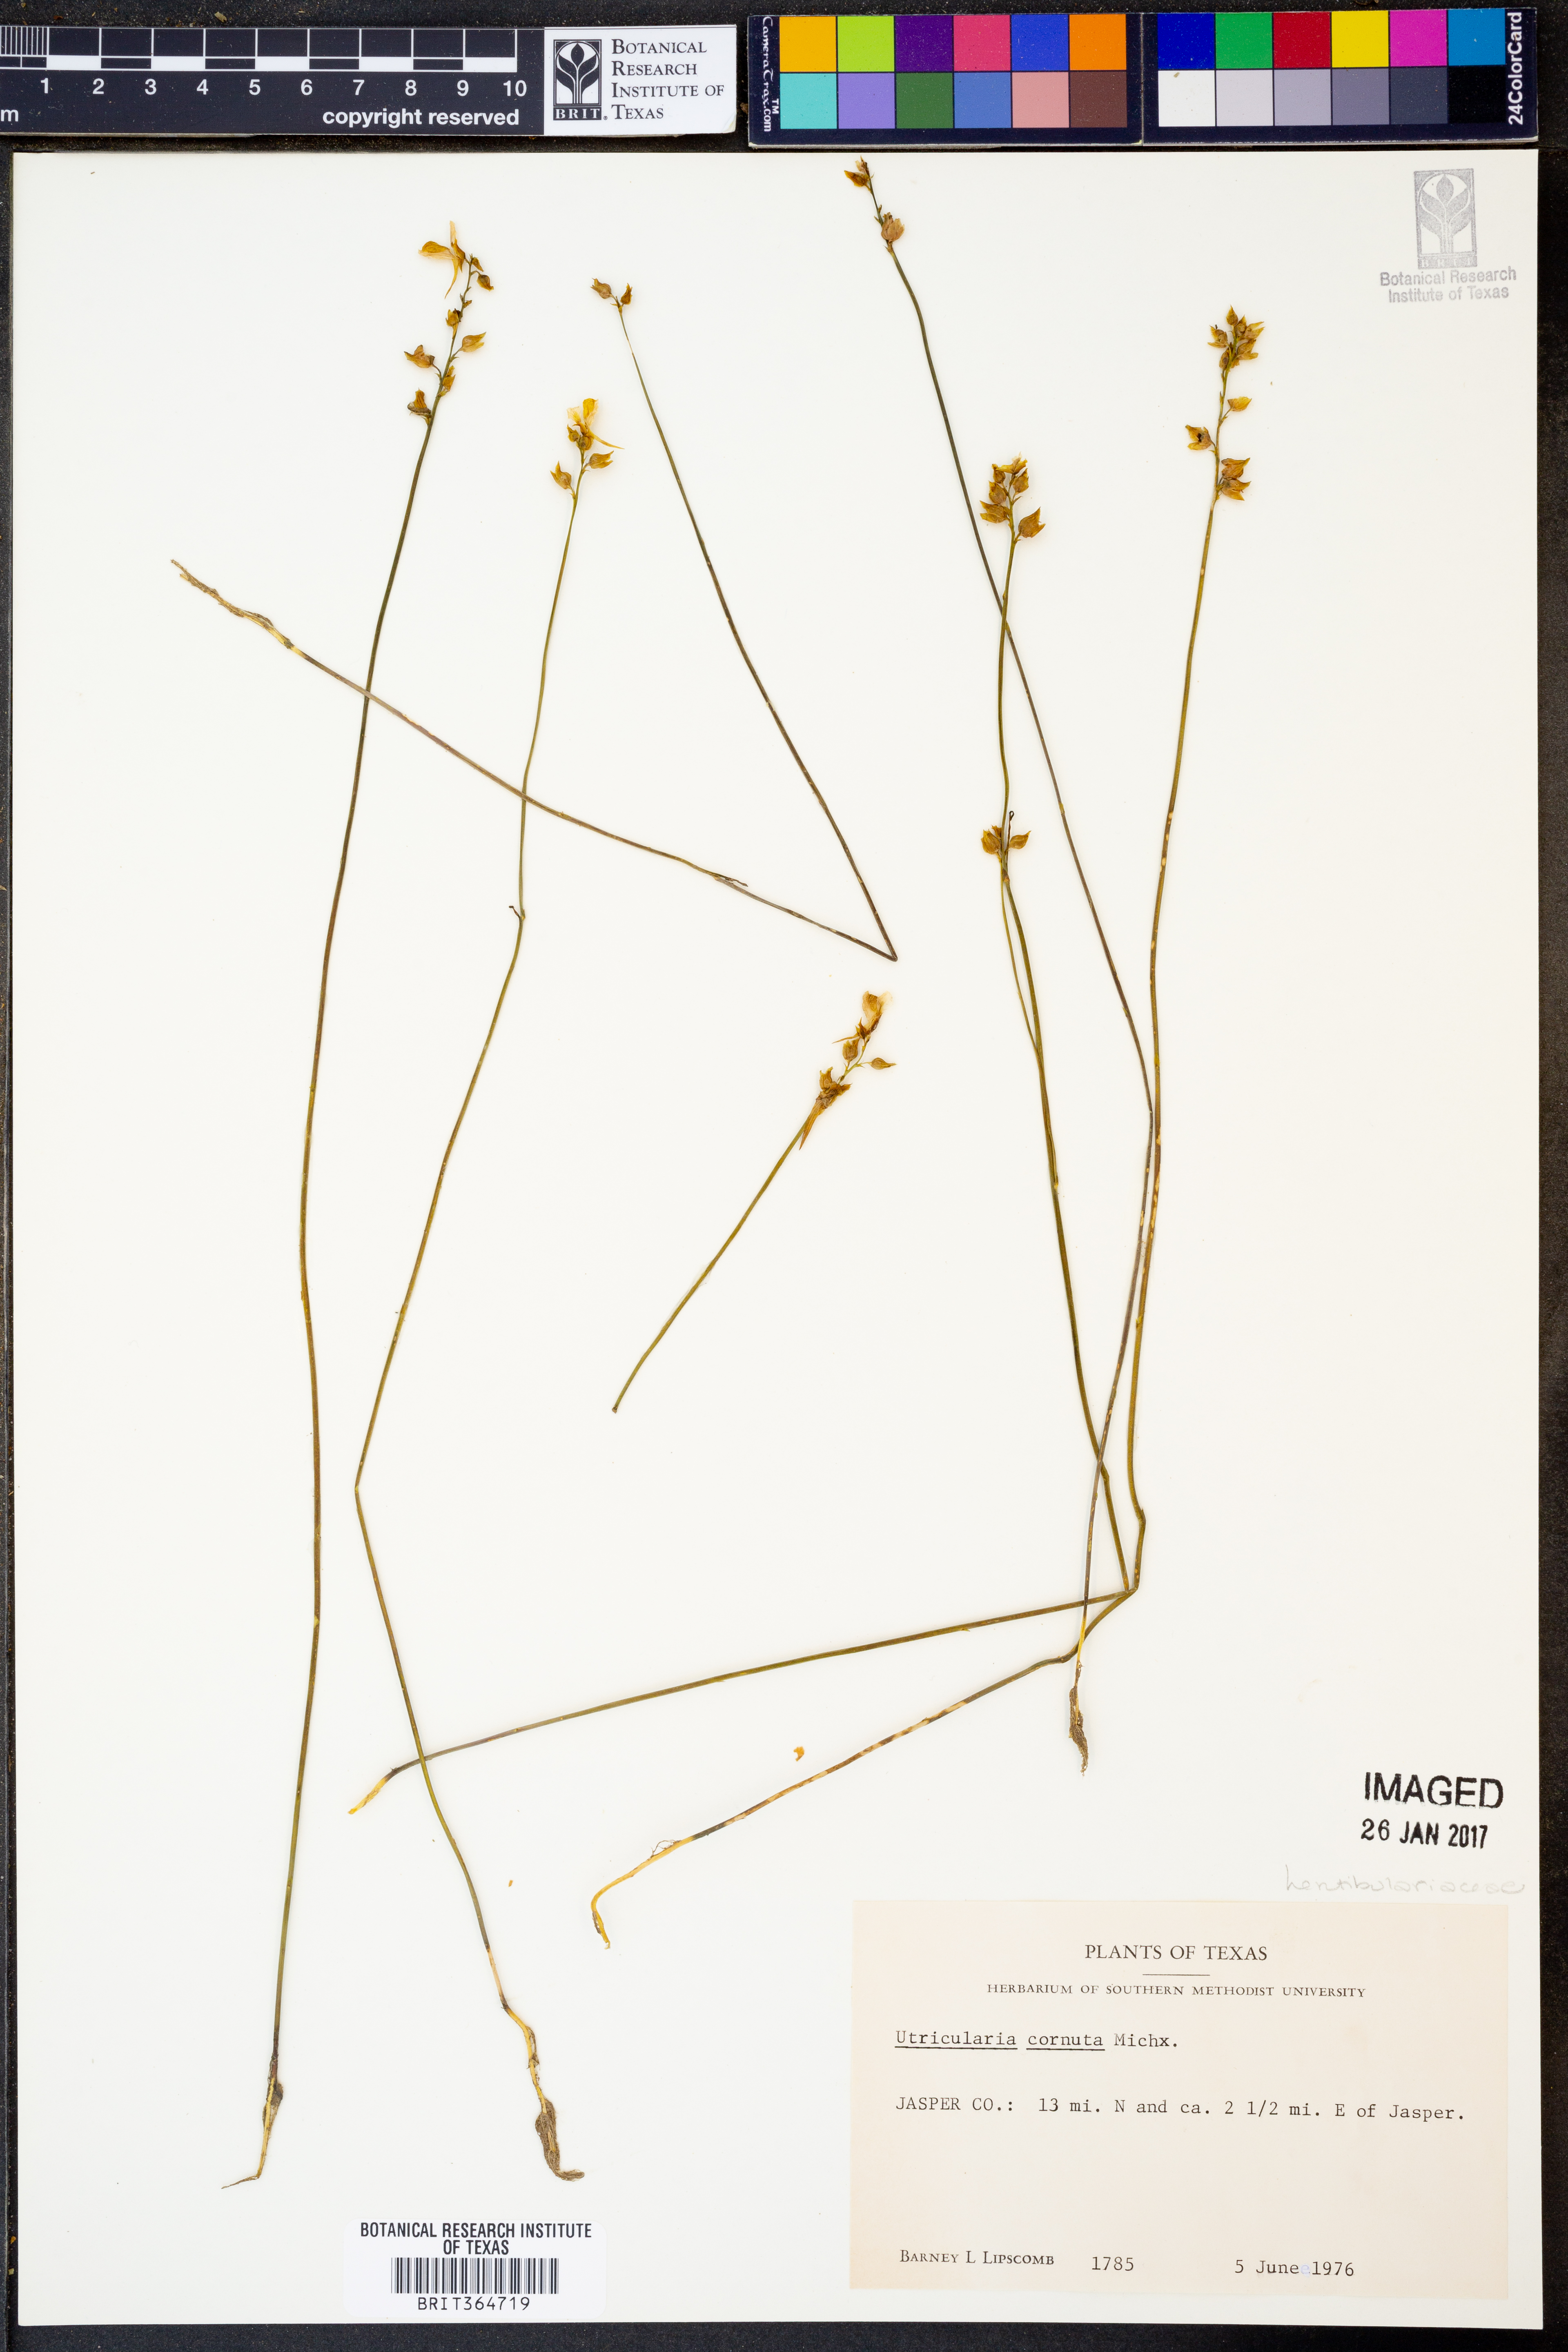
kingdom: Plantae
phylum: Tracheophyta
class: Magnoliopsida
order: Lamiales
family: Lentibulariaceae
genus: Utricularia
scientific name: Utricularia cornuta
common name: Horned bladderwort
